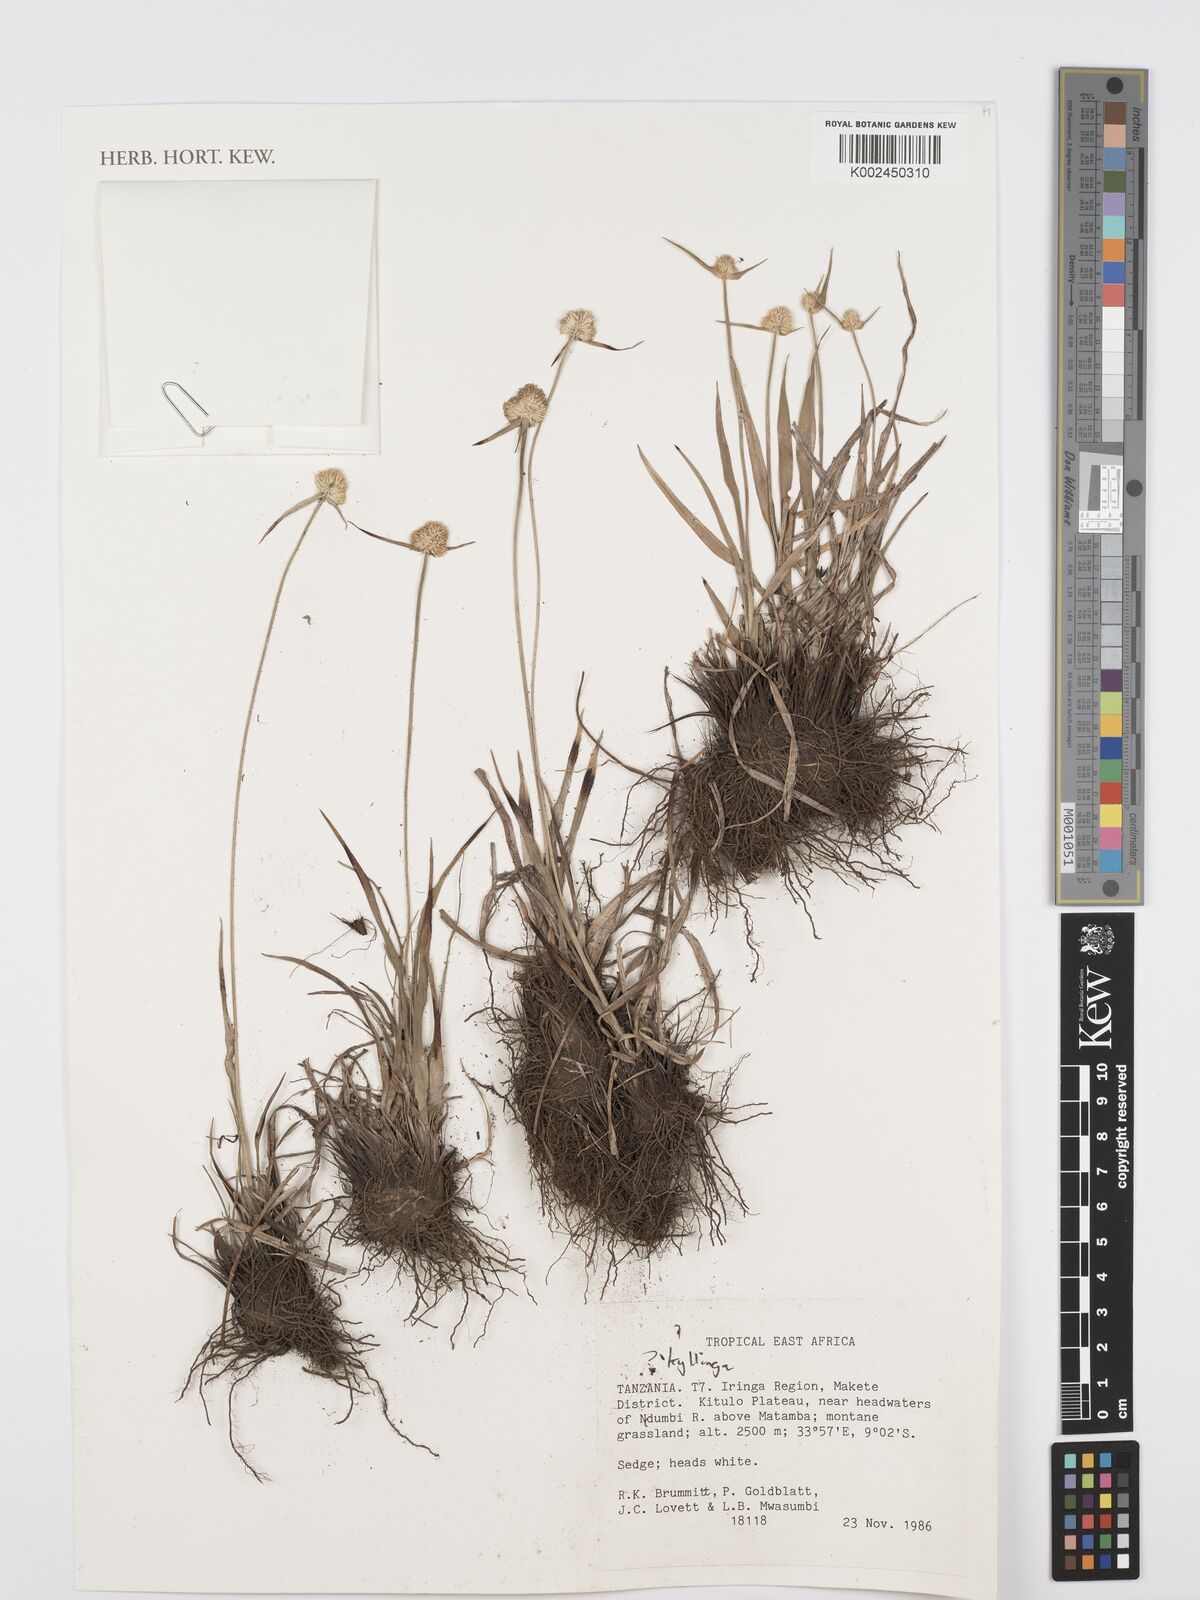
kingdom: Plantae
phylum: Tracheophyta
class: Liliopsida
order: Poales
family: Cyperaceae
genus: Cyperus
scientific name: Cyperus
